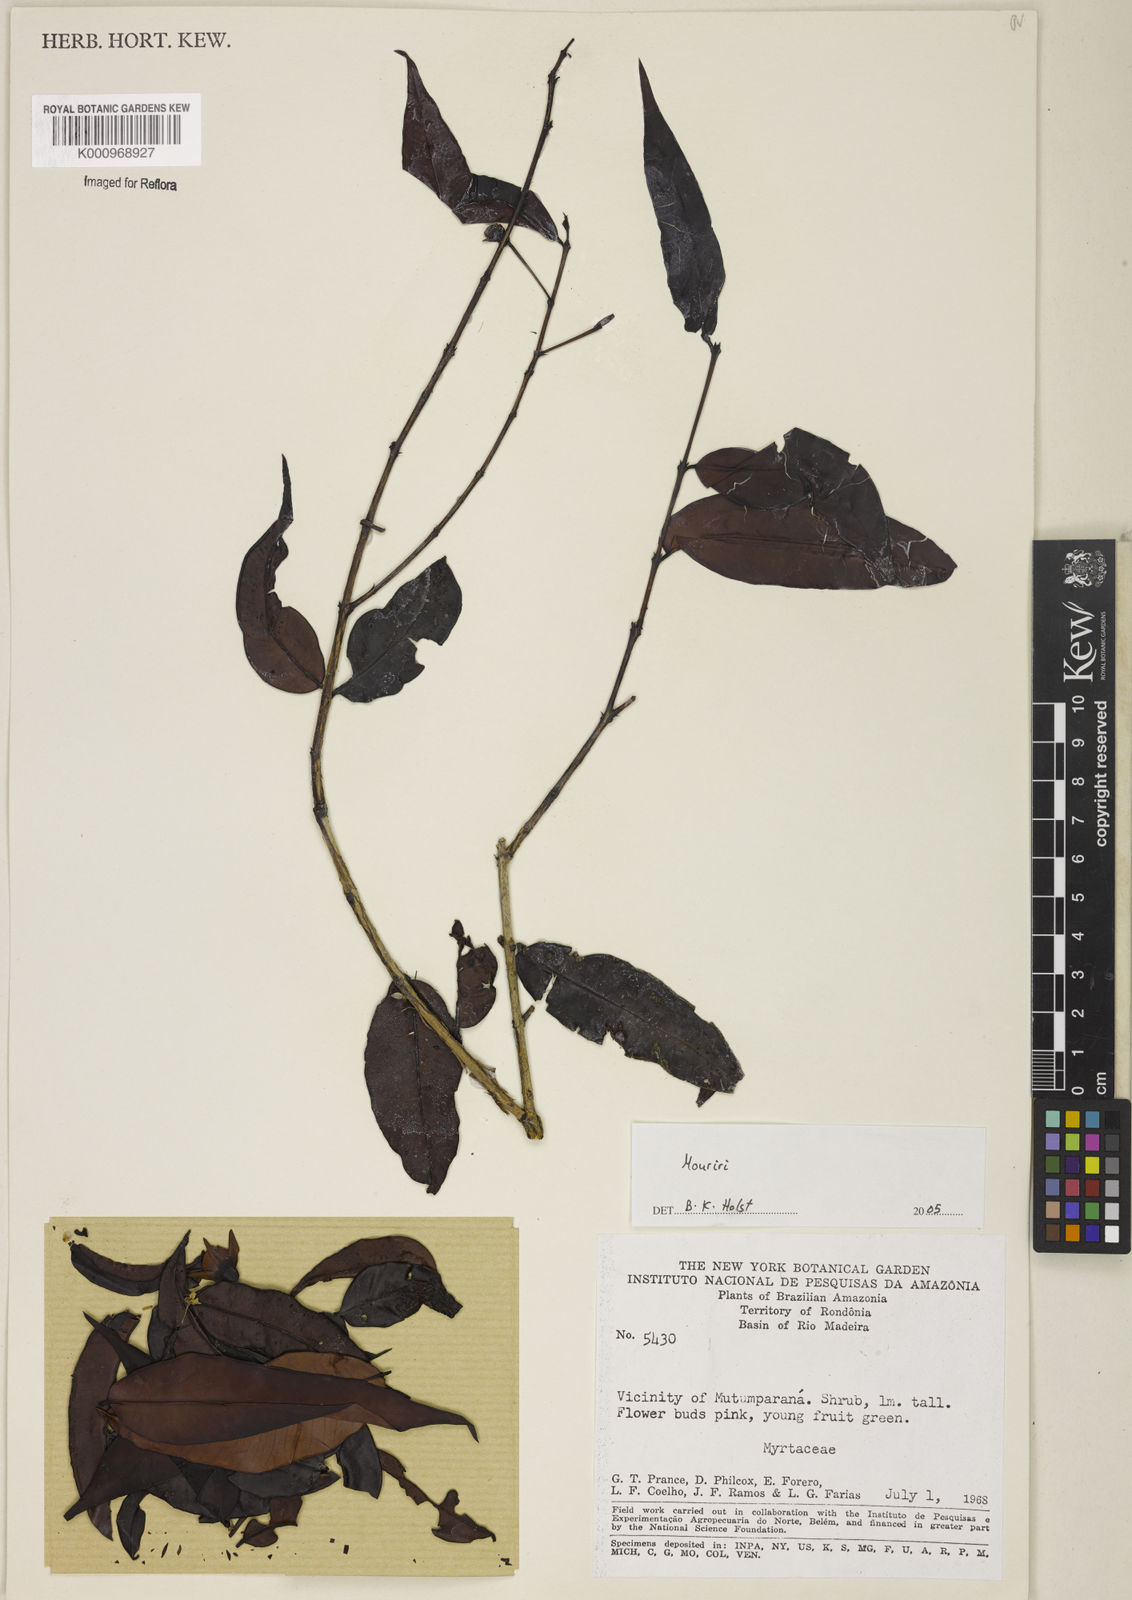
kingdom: Plantae
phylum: Tracheophyta
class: Magnoliopsida
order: Myrtales
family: Melastomataceae
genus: Mouriri
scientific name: Mouriri
